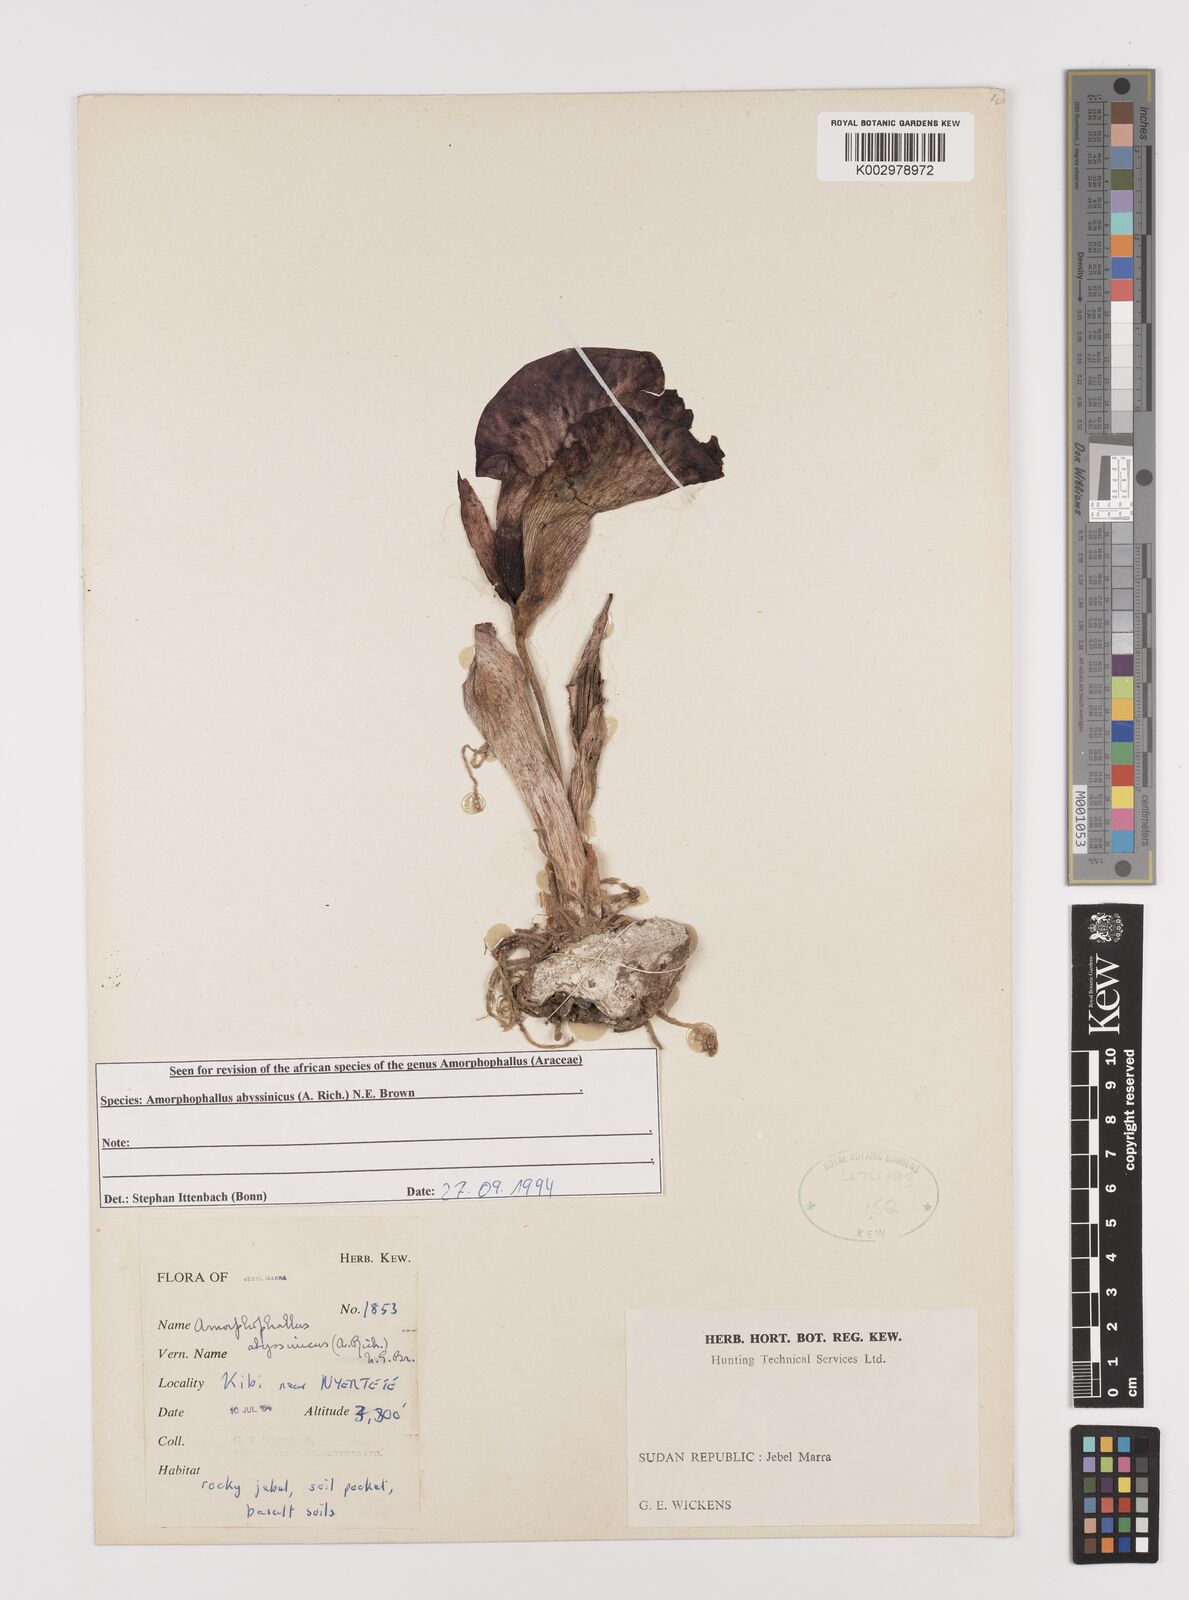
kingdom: Plantae
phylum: Tracheophyta
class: Liliopsida
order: Alismatales
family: Araceae
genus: Amorphophallus
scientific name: Amorphophallus abyssinicus
